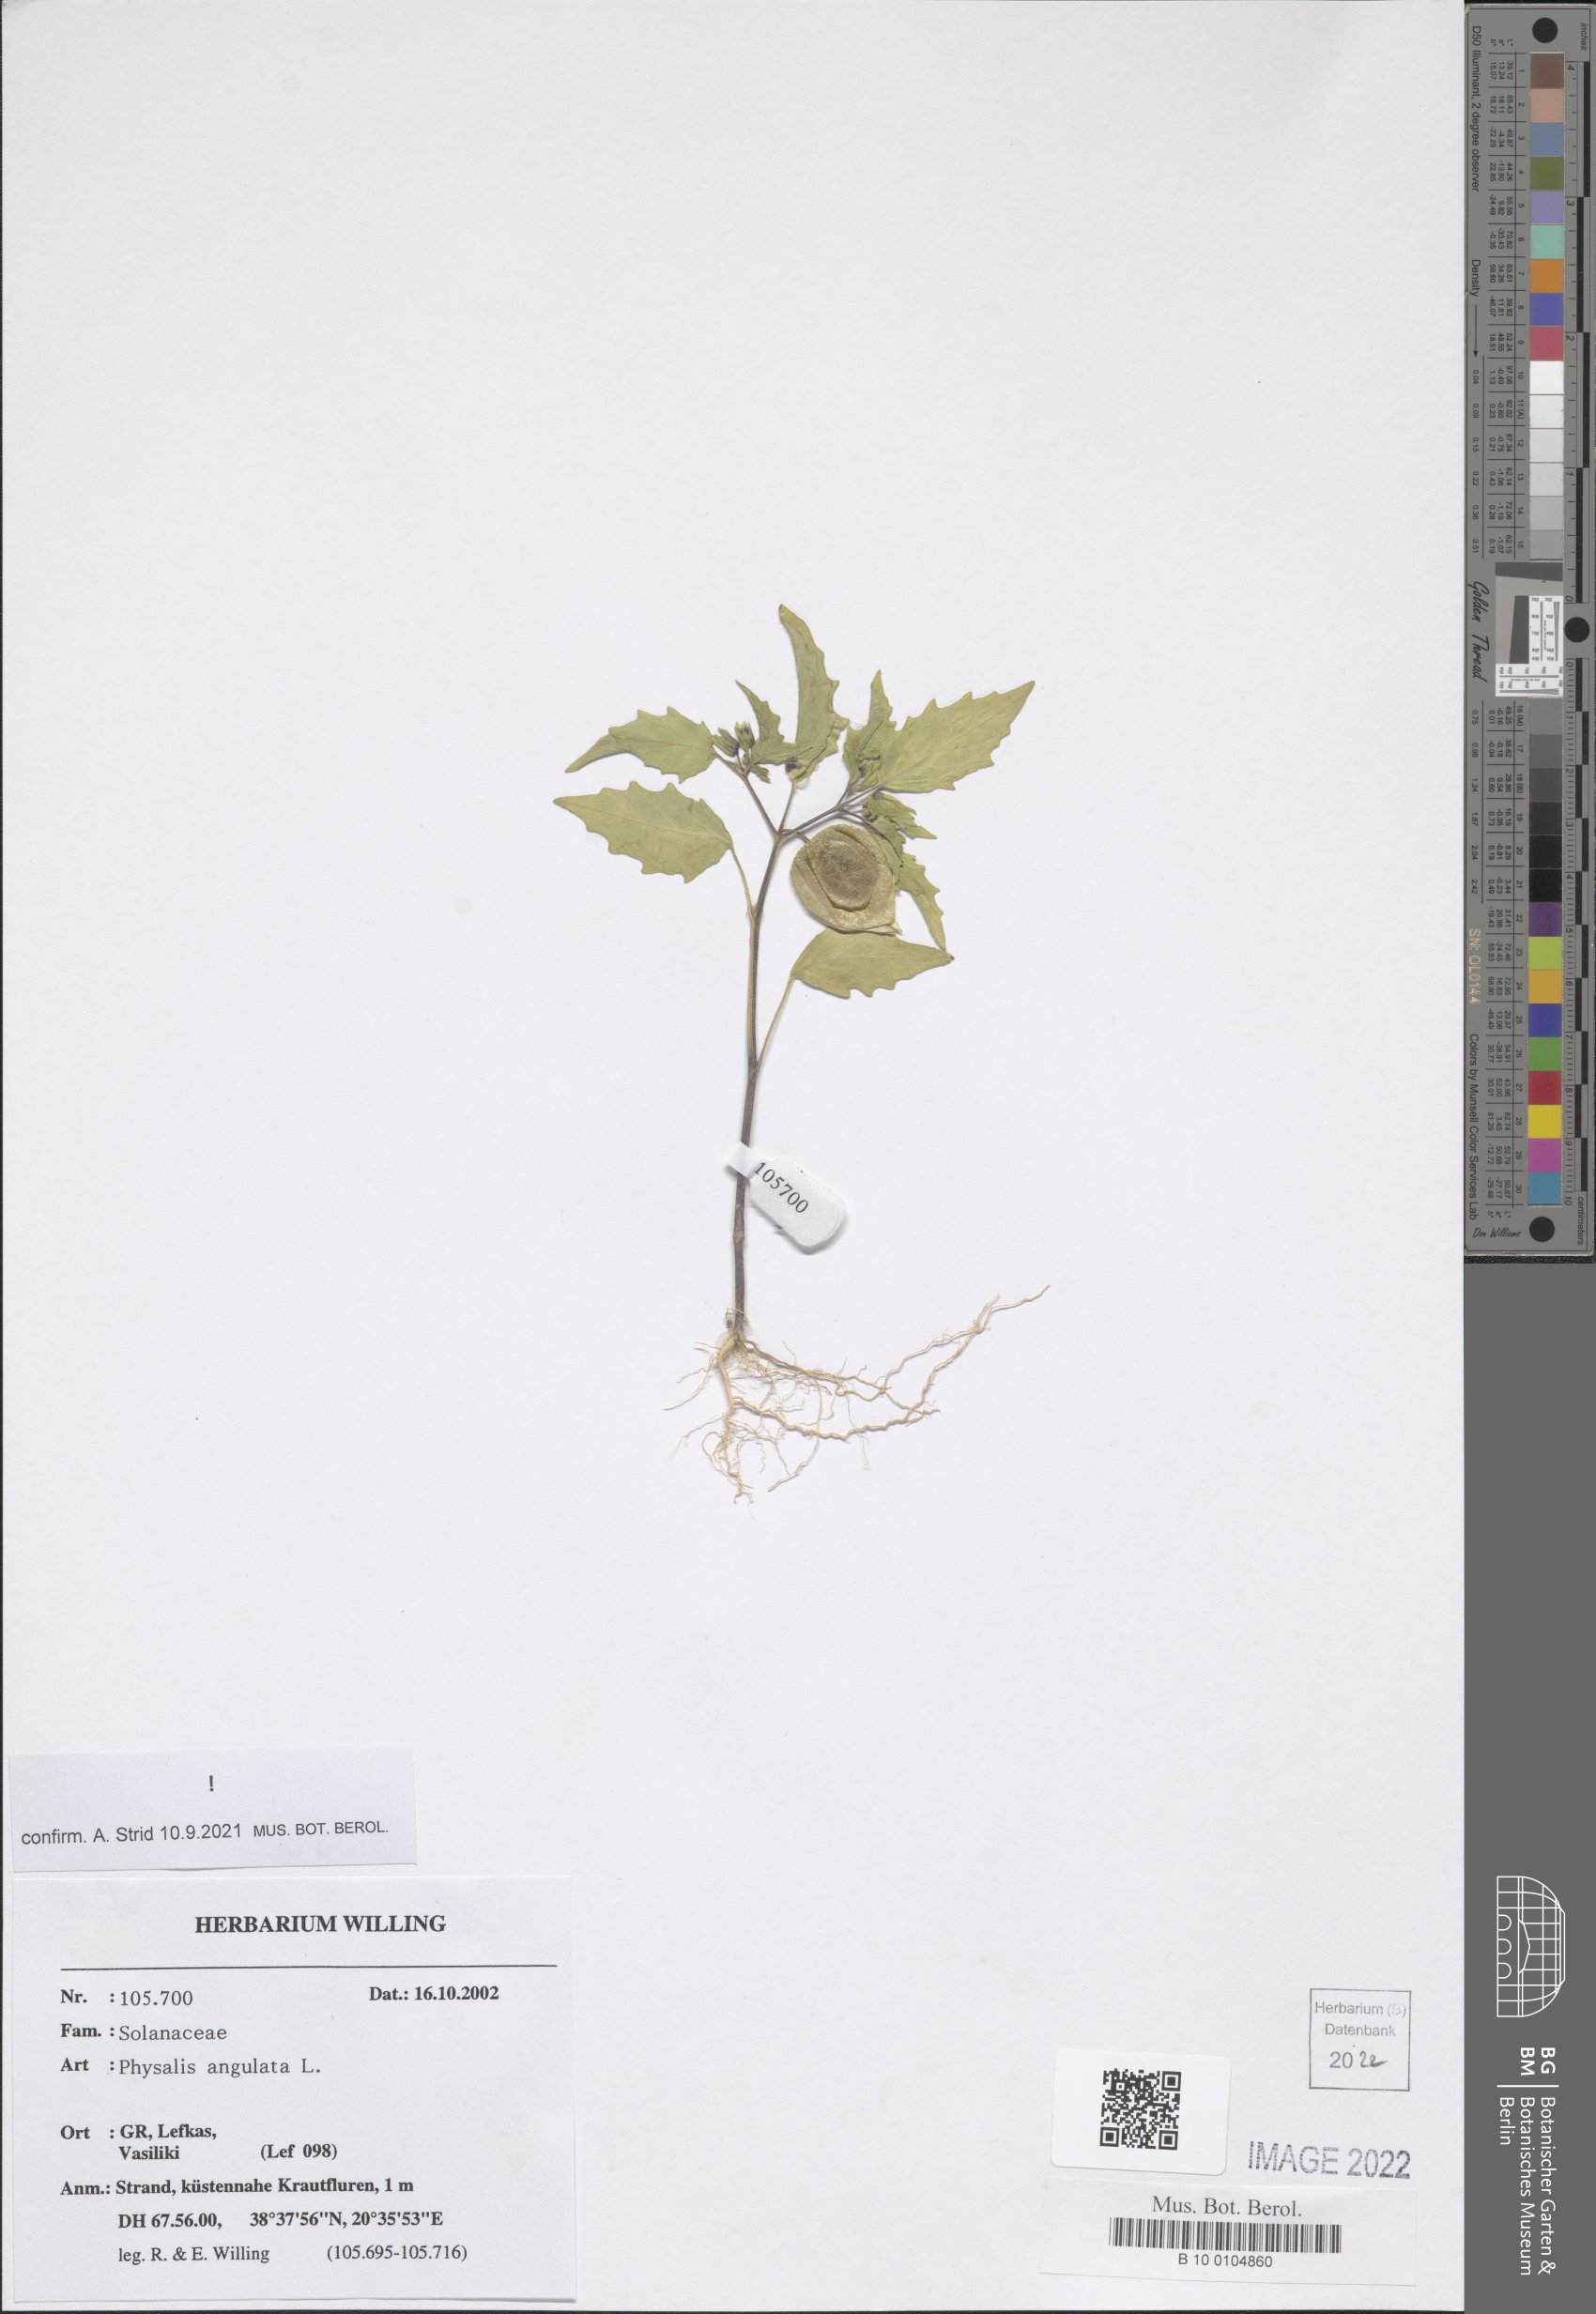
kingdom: Plantae
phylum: Tracheophyta
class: Magnoliopsida
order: Solanales
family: Solanaceae
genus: Physalis
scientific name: Physalis angulata
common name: Angular winter-cherry
